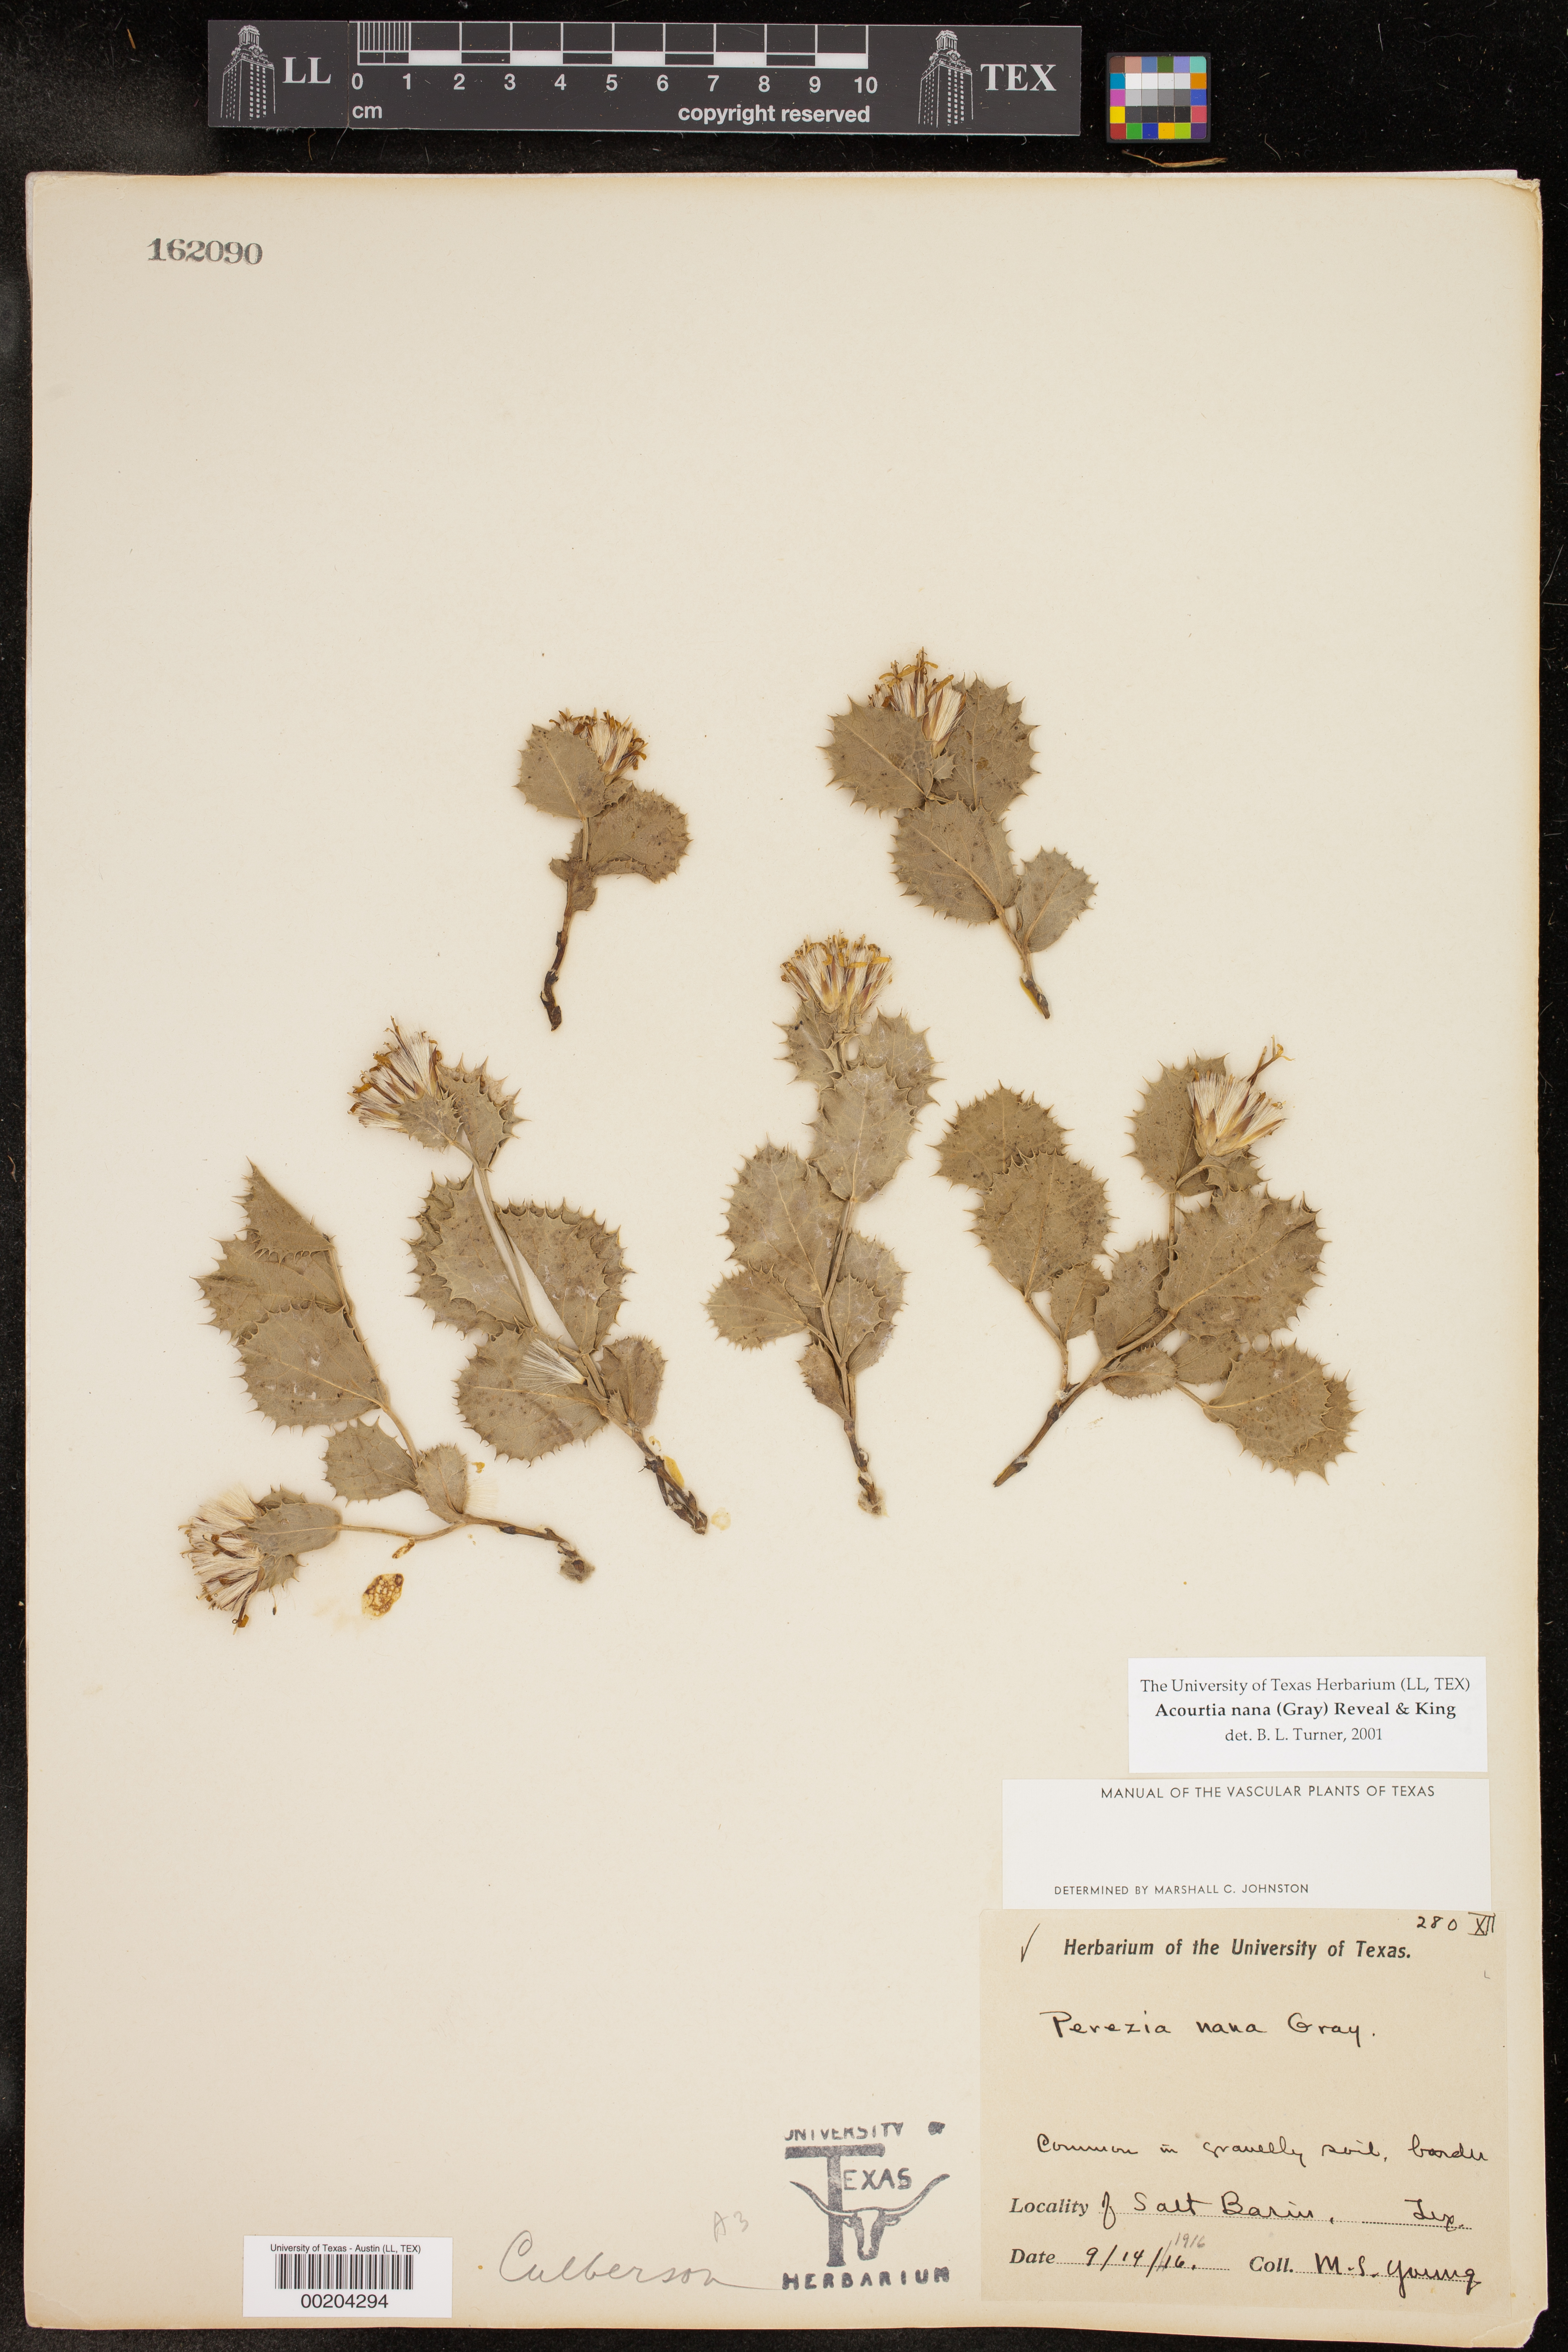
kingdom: Plantae
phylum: Tracheophyta
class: Magnoliopsida
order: Asterales
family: Asteraceae
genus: Acourtia
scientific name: Acourtia nana
